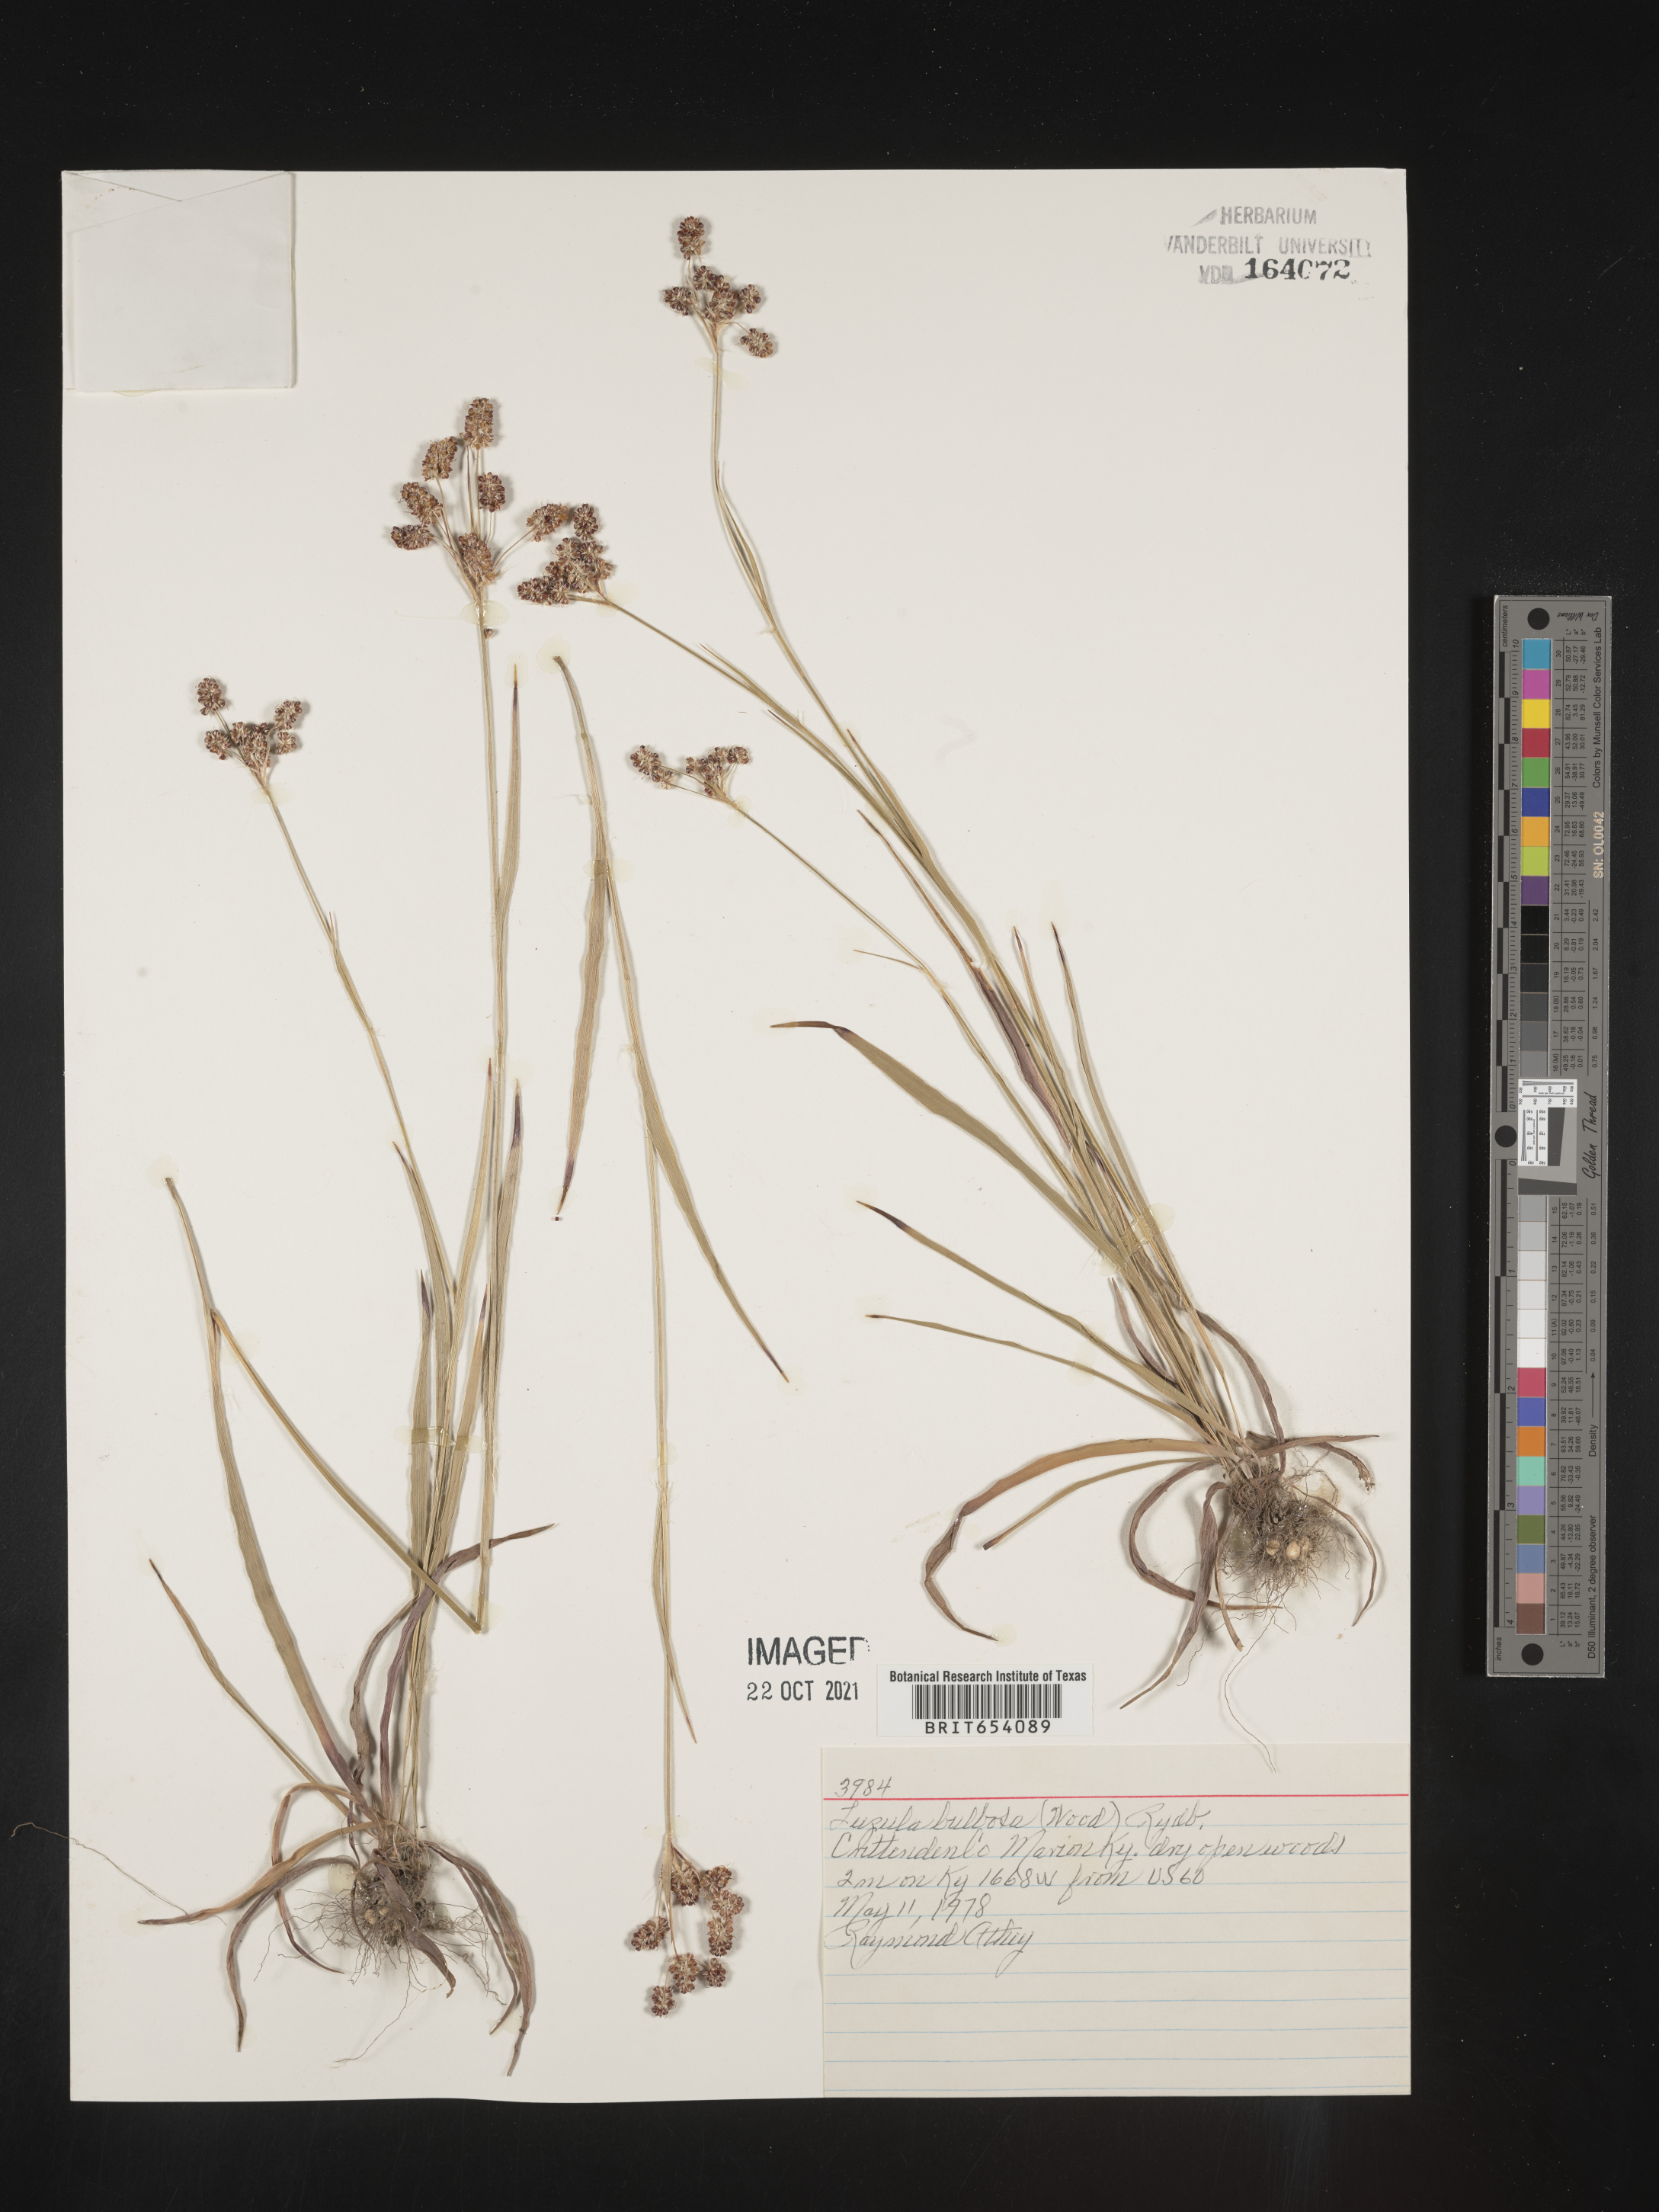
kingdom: Plantae
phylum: Tracheophyta
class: Liliopsida
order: Poales
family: Juncaceae
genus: Luzula
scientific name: Luzula bulbosa
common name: Bulbous woodrush
